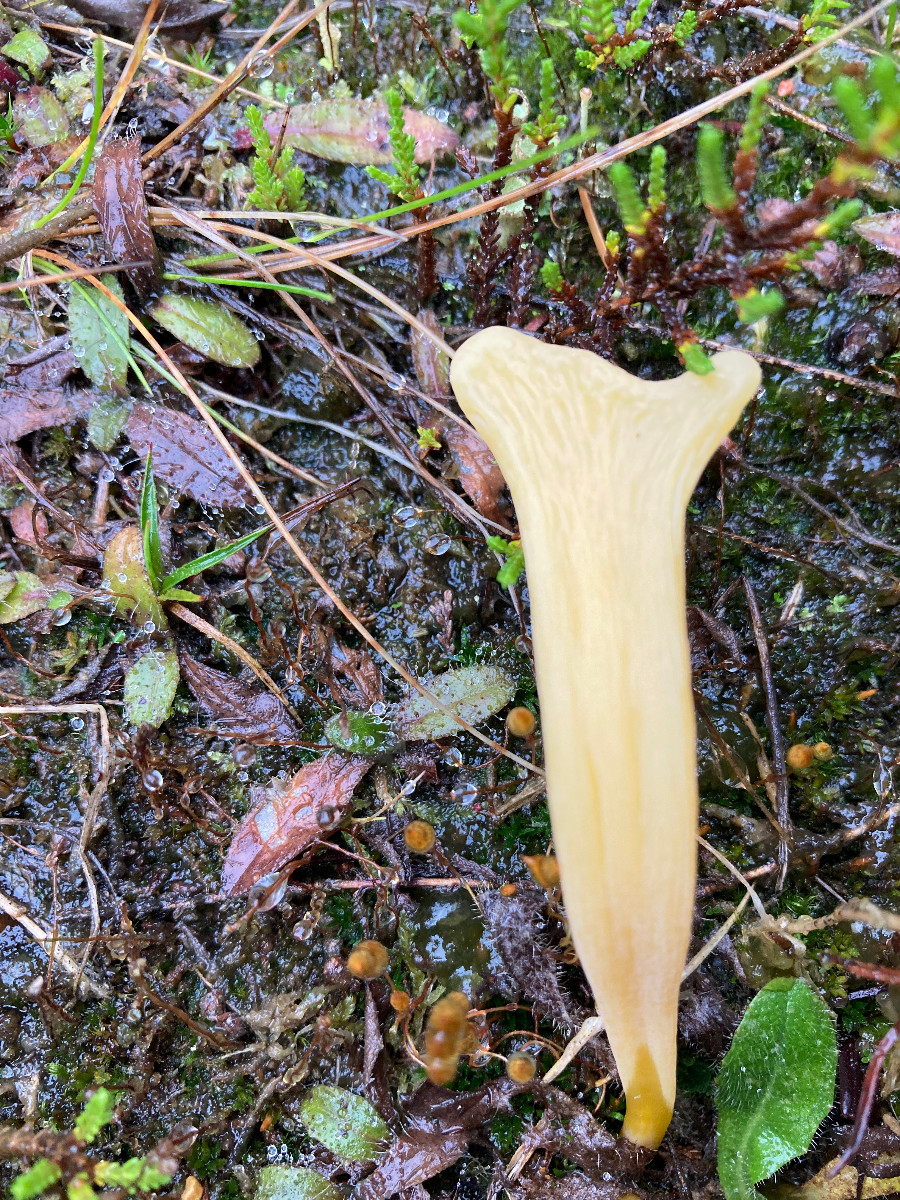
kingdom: Fungi
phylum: Basidiomycota
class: Agaricomycetes
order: Agaricales
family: Clavariaceae
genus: Clavaria
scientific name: Clavaria argillacea
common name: lerfarvet køllesvamp
